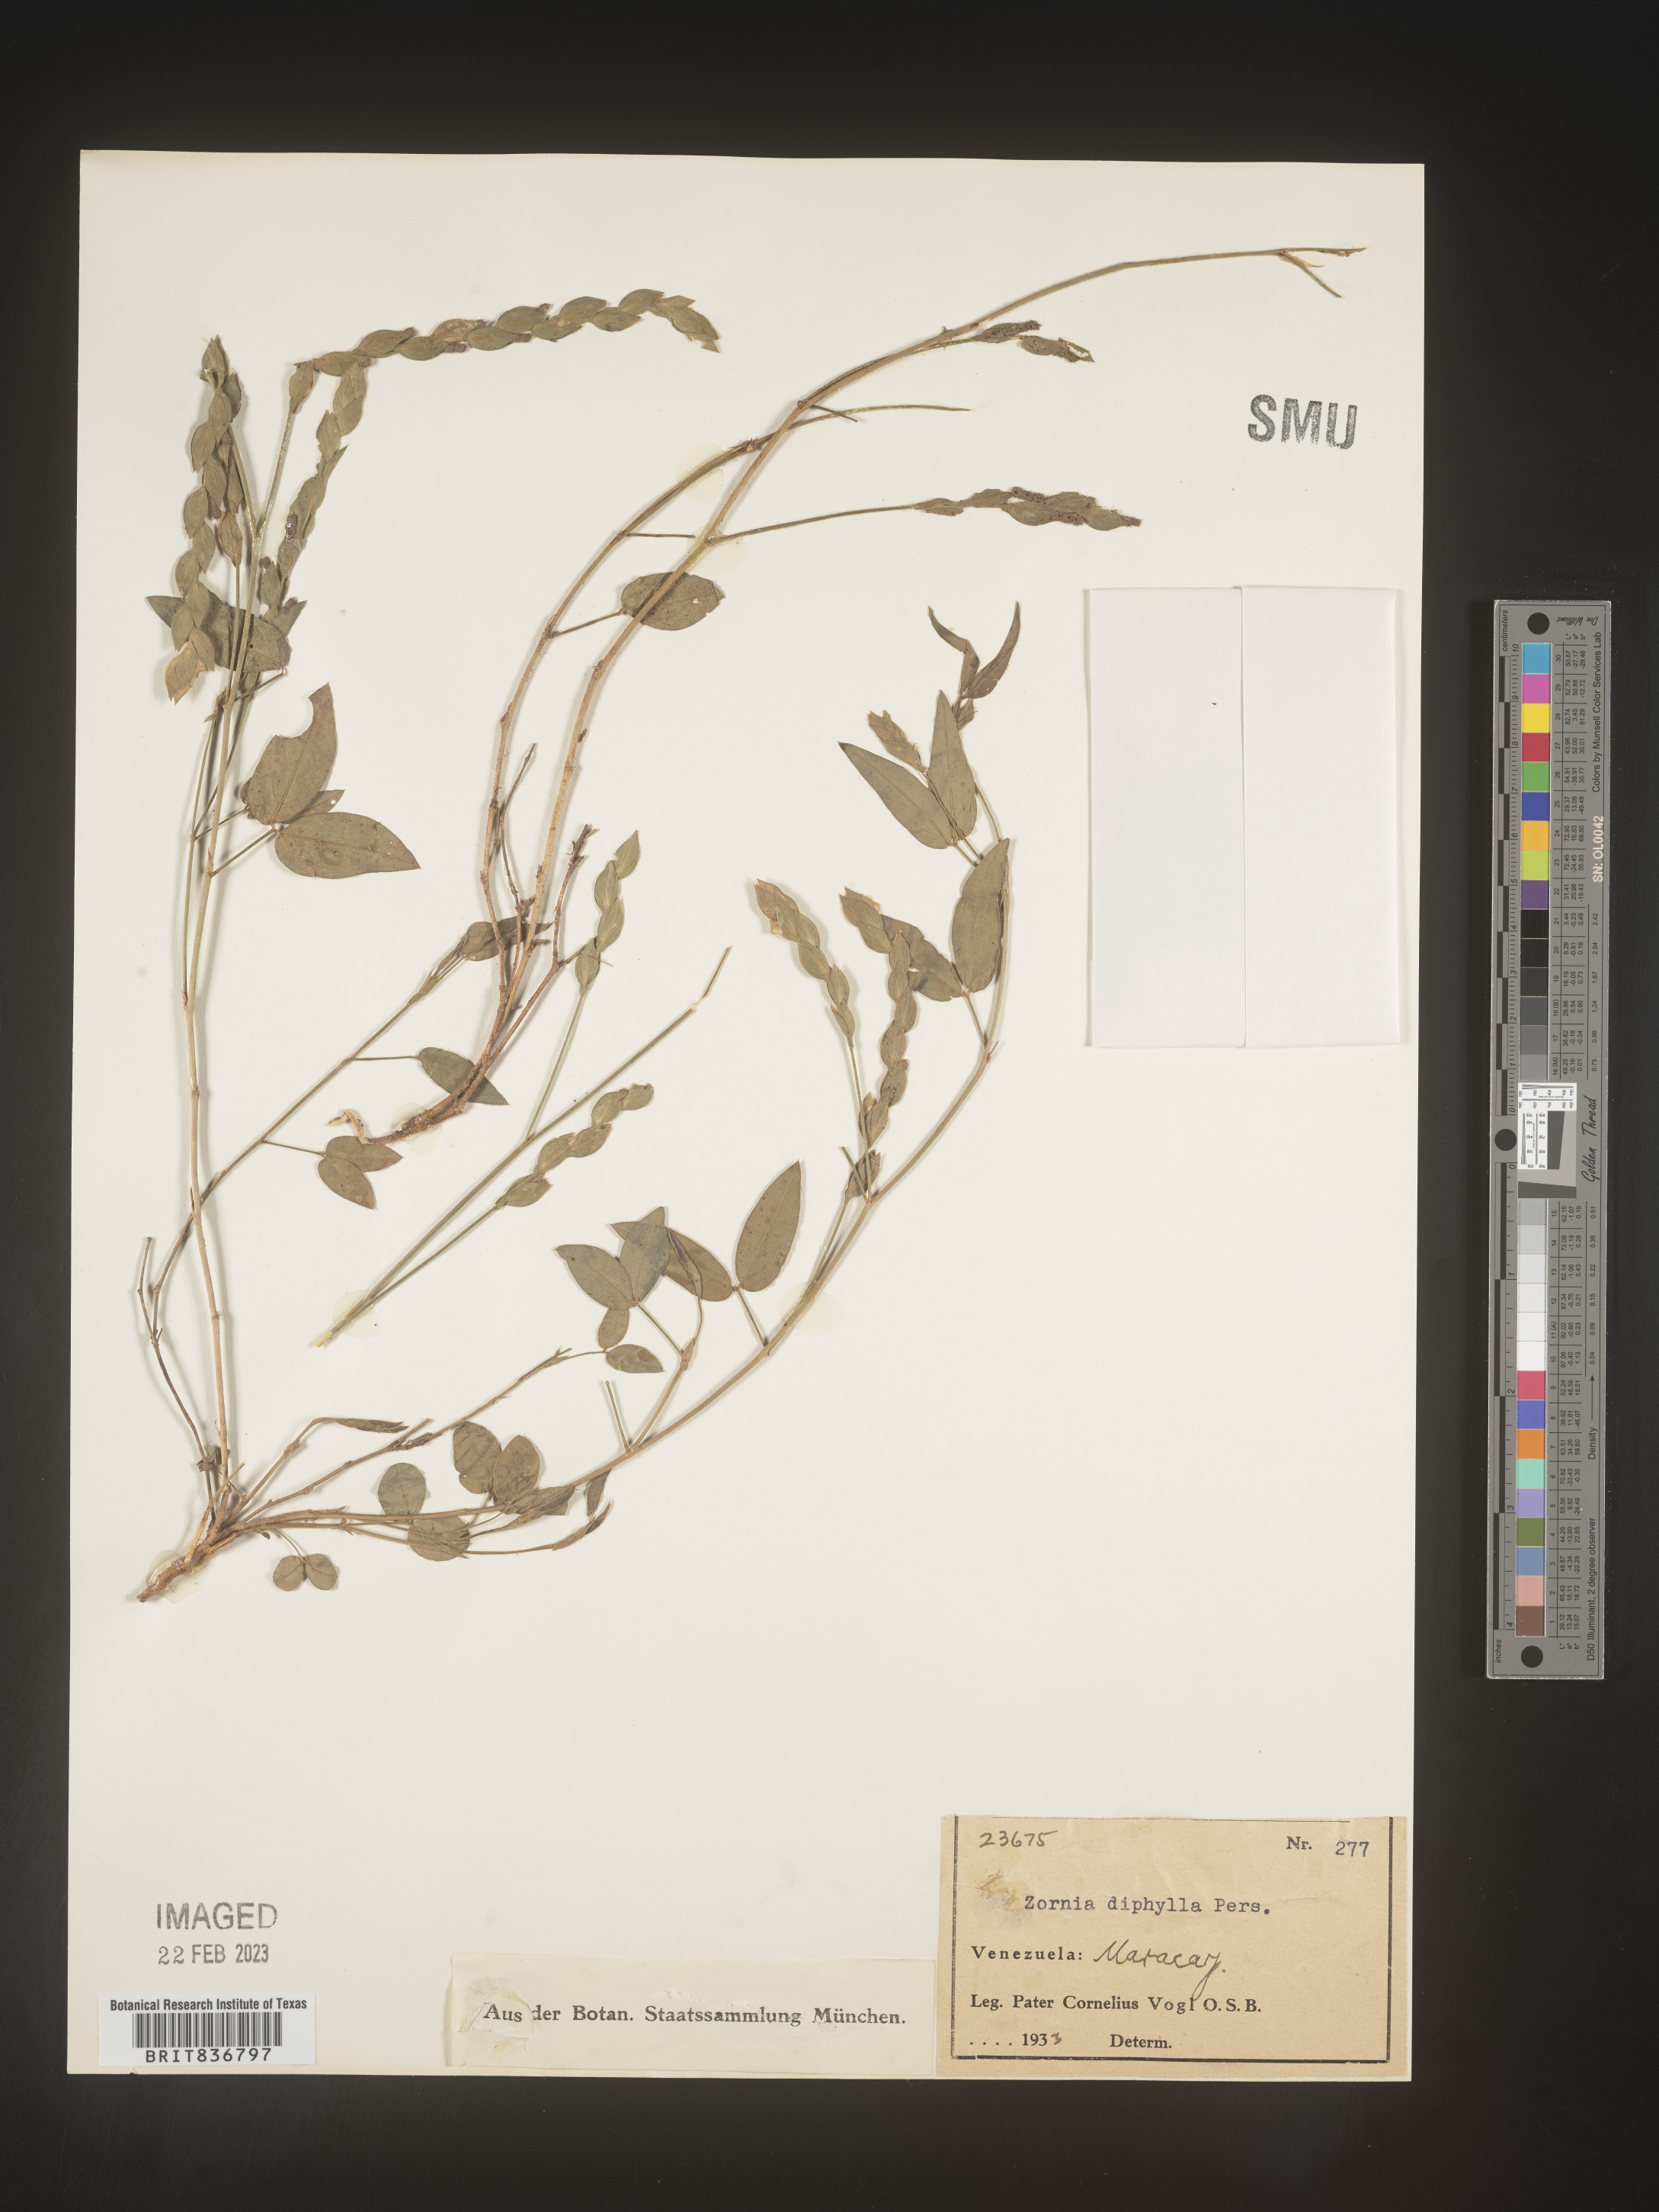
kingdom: Plantae
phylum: Tracheophyta
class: Magnoliopsida
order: Fabales
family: Fabaceae
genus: Zornia
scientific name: Zornia
